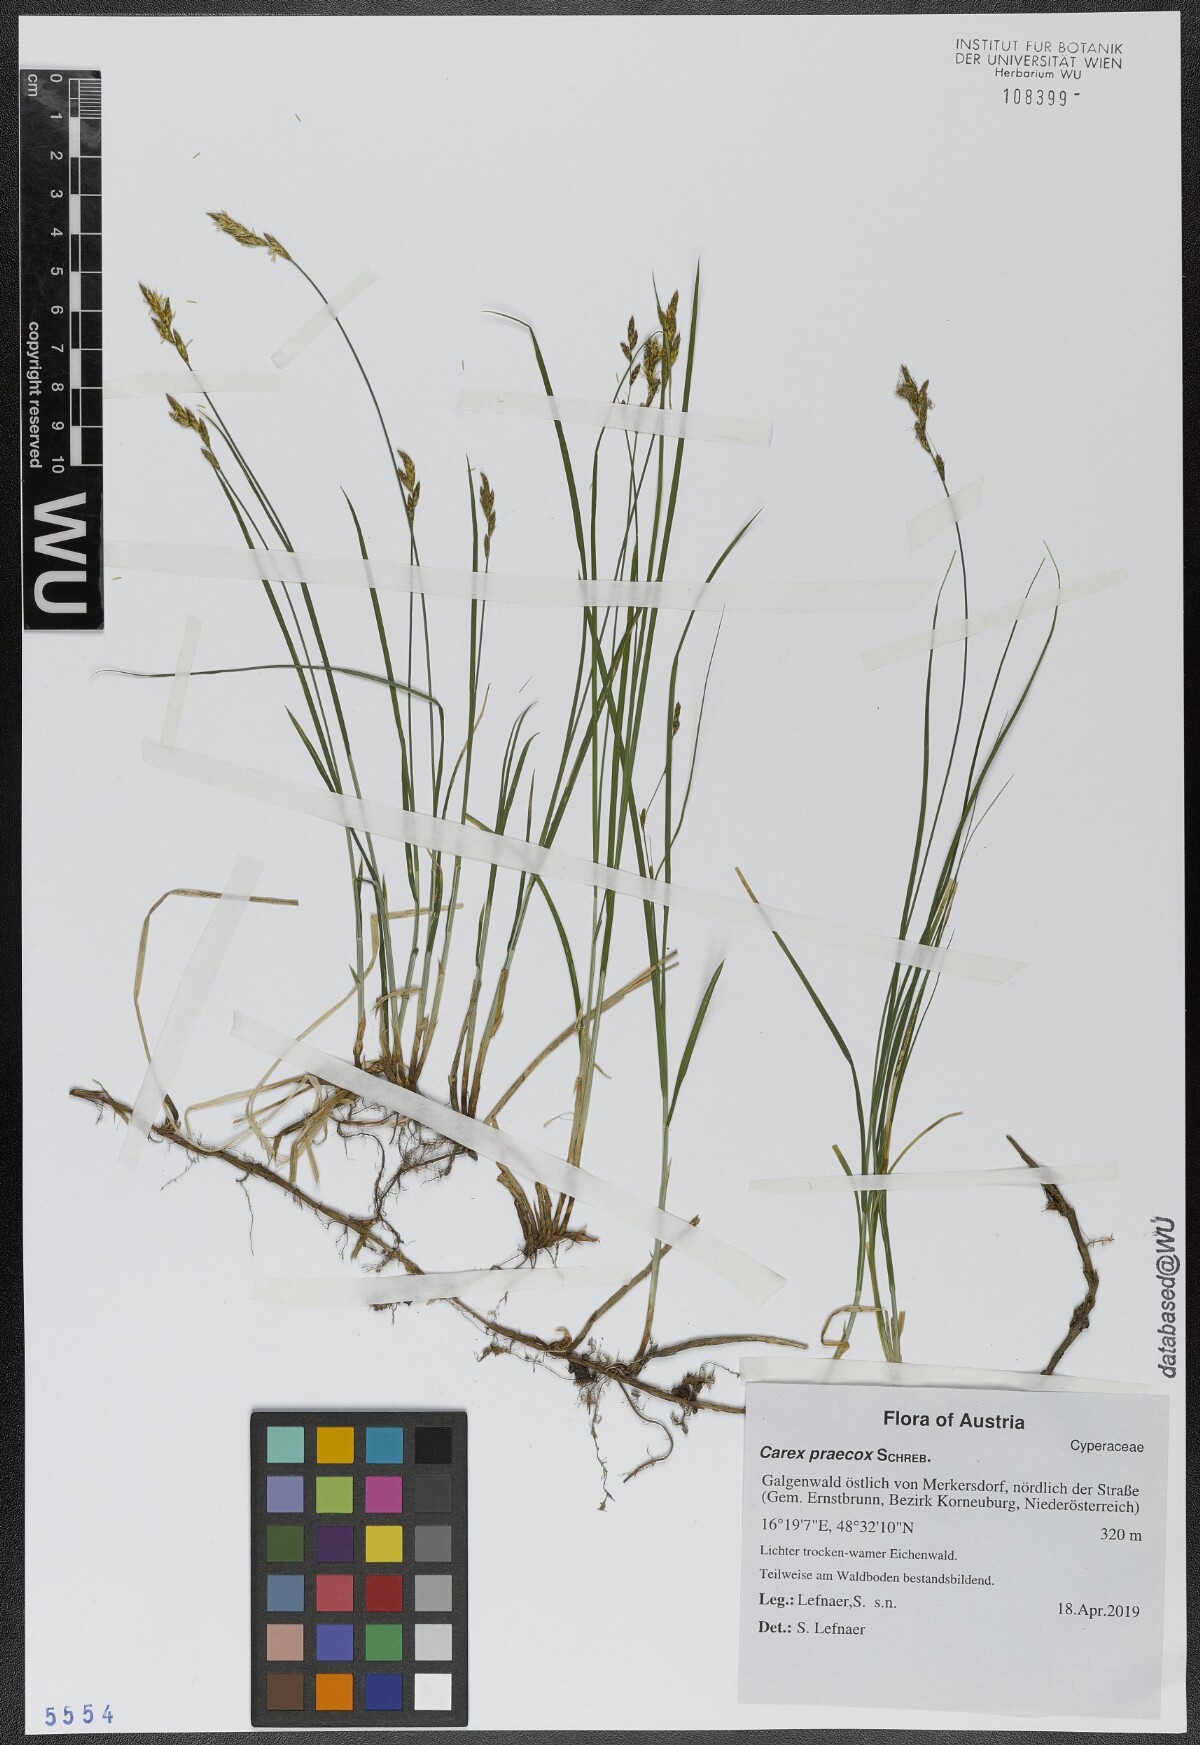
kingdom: Plantae
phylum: Tracheophyta
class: Liliopsida
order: Poales
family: Cyperaceae
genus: Carex
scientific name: Carex praecox
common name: Early sedge
